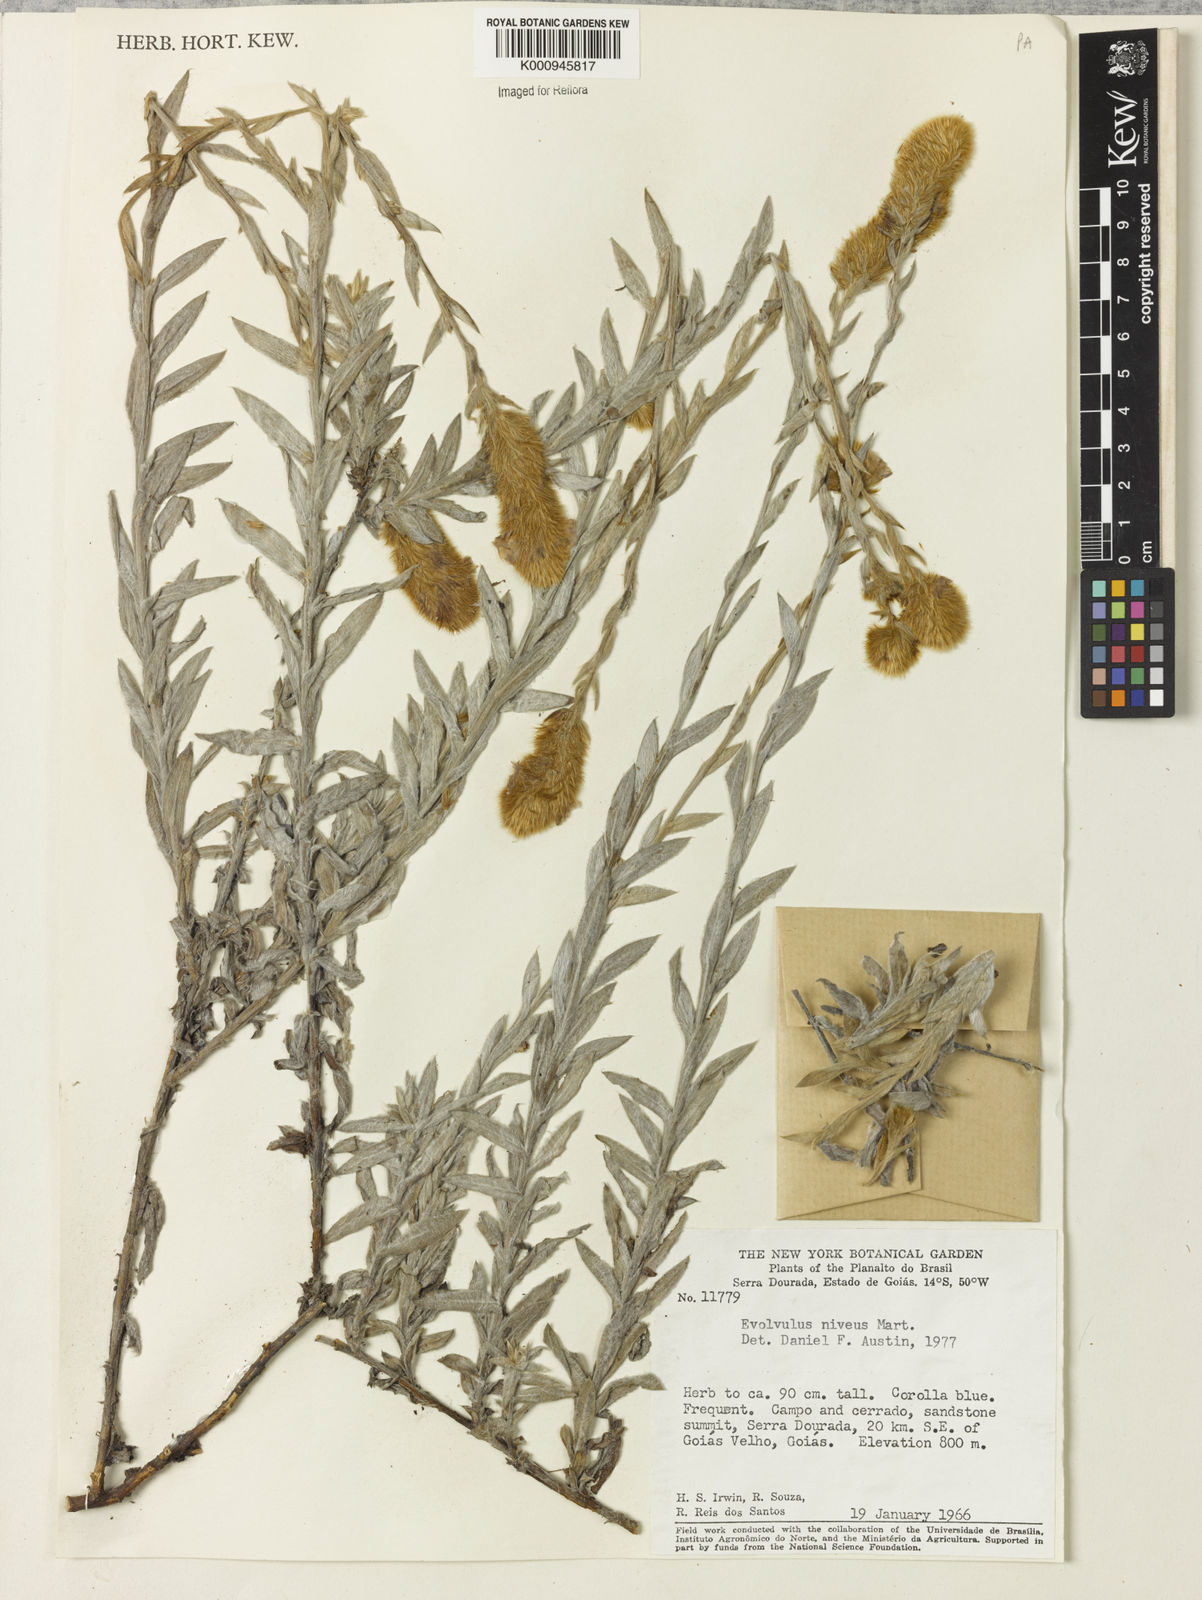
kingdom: Plantae
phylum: Tracheophyta
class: Magnoliopsida
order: Solanales
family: Convolvulaceae
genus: Evolvulus
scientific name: Evolvulus niveus
